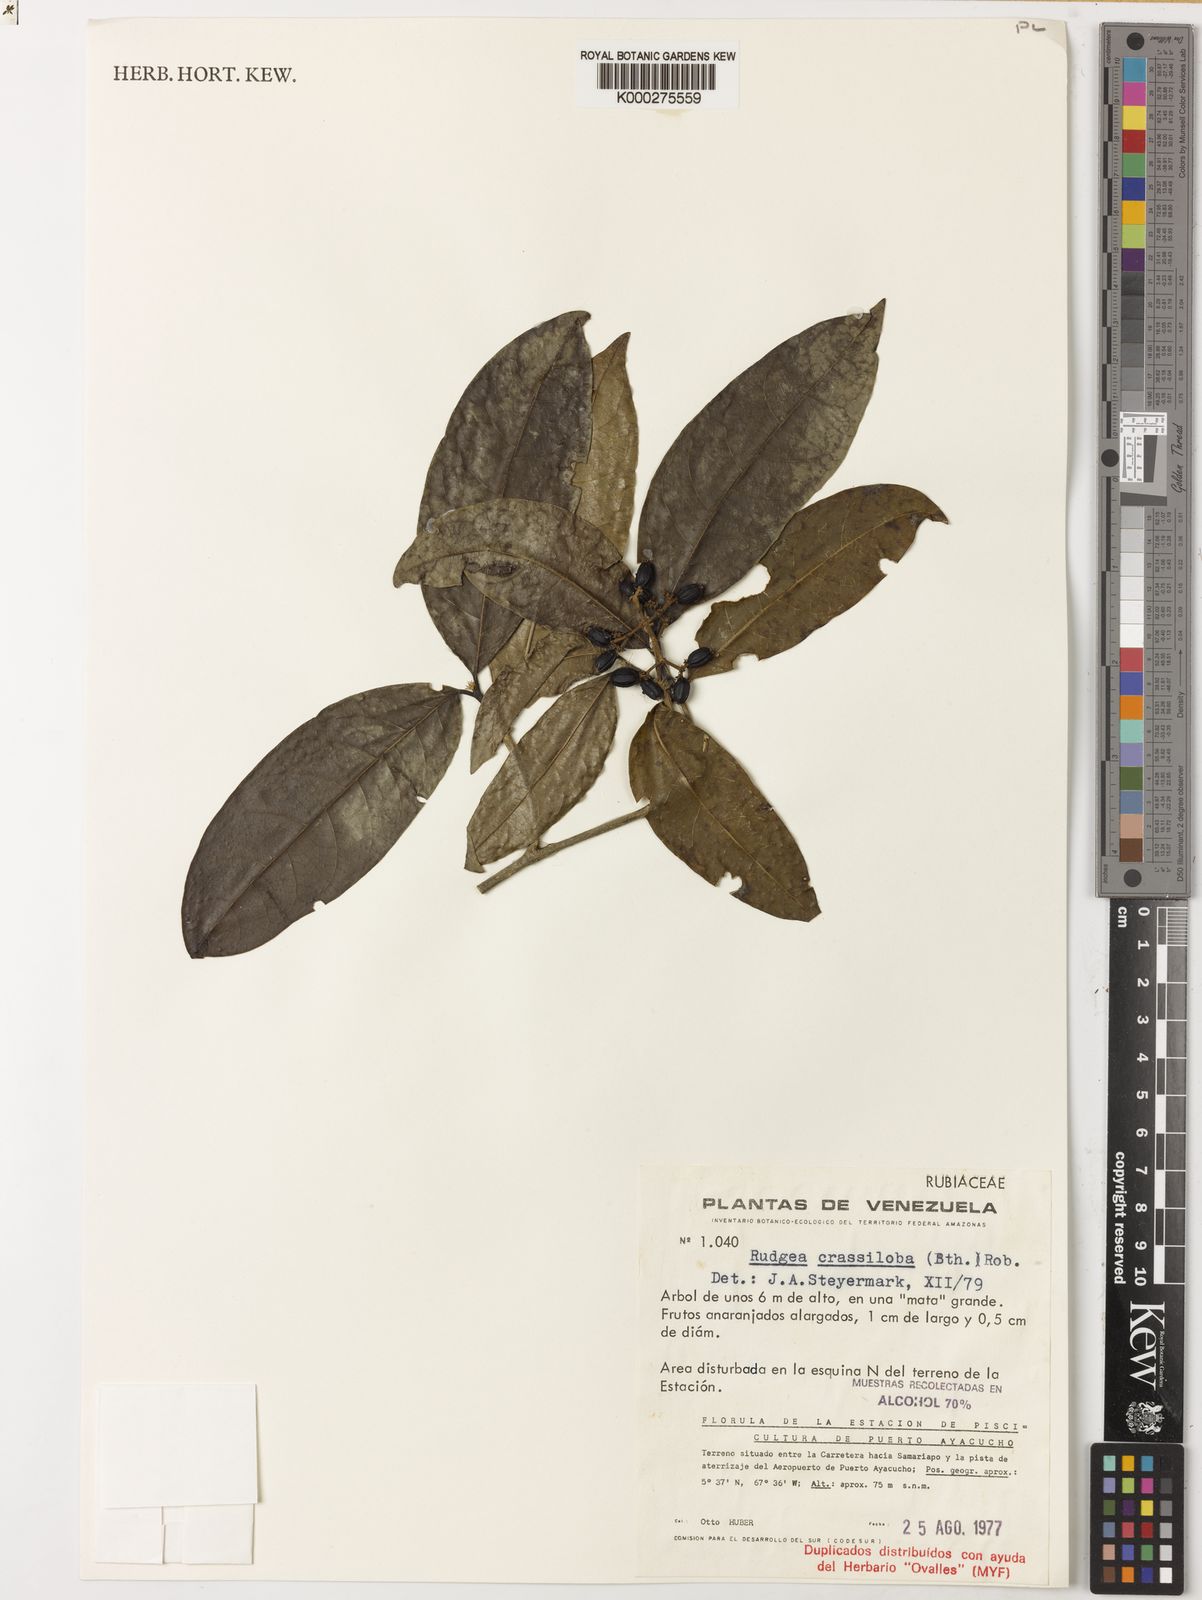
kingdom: Plantae
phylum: Tracheophyta
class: Magnoliopsida
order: Gentianales
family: Rubiaceae
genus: Rudgea
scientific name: Rudgea crassiloba
